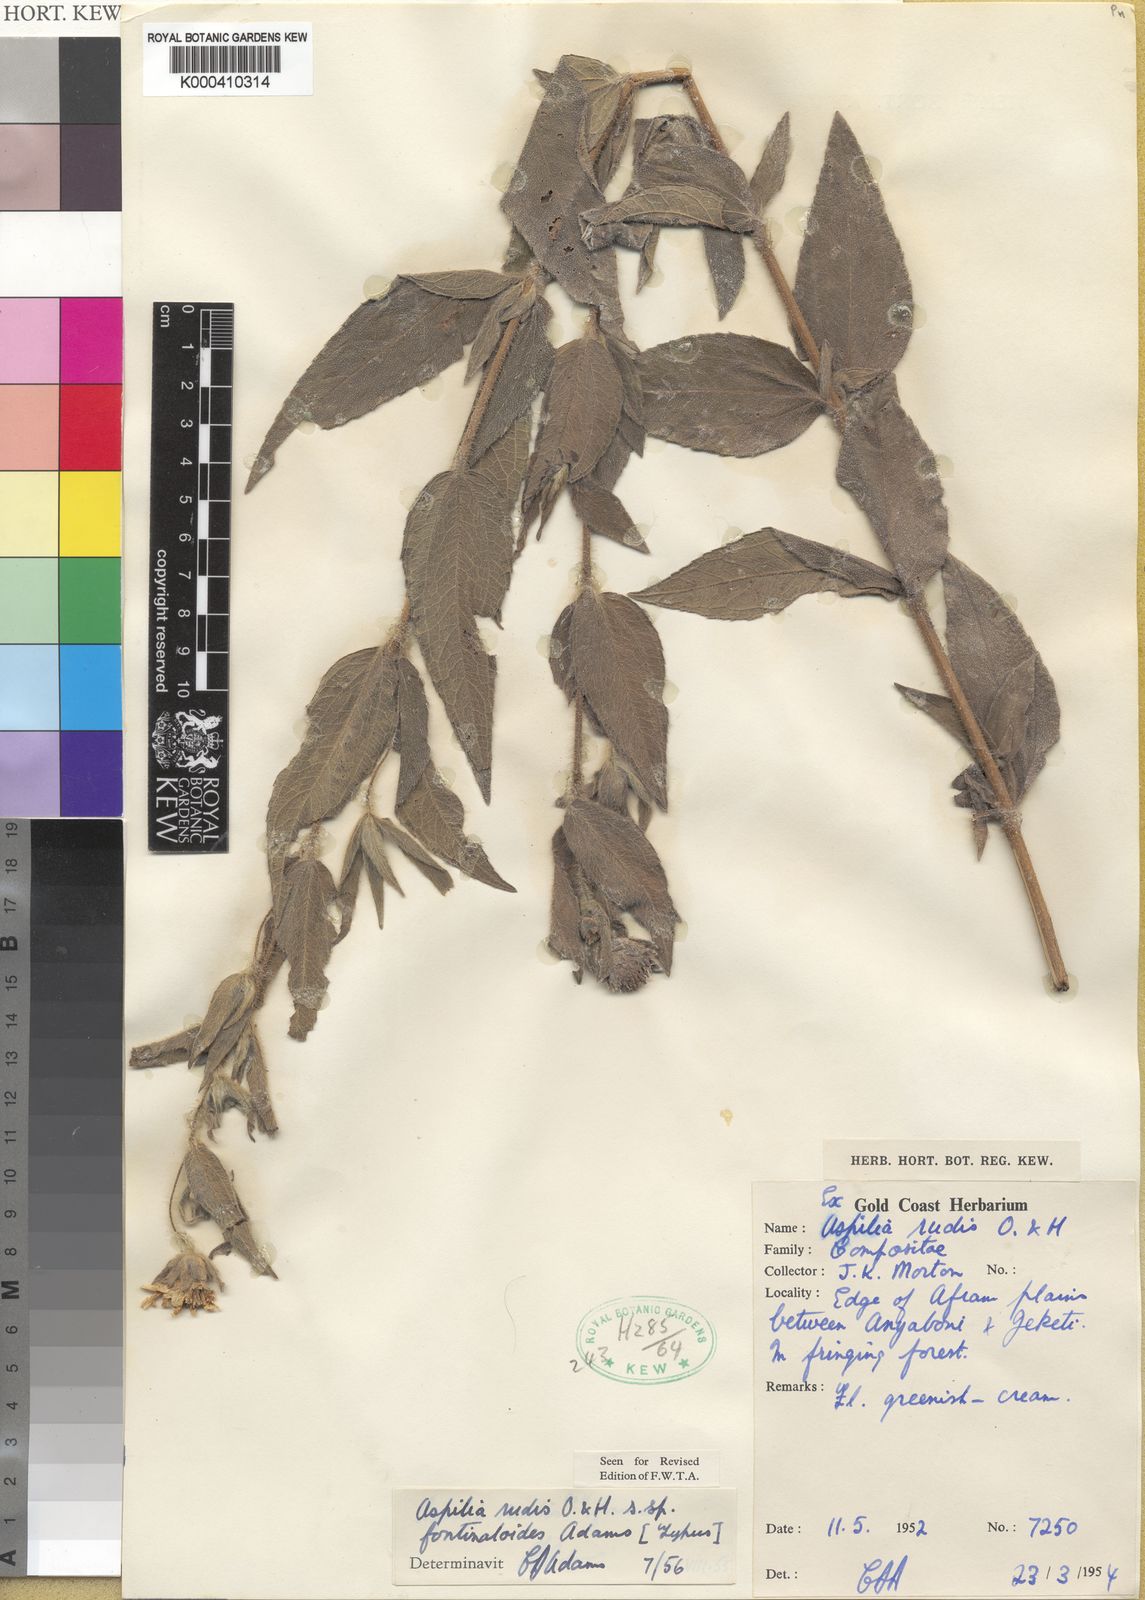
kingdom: Plantae
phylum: Tracheophyta
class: Magnoliopsida
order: Asterales
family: Asteraceae
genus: Aspilia
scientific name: Aspilia rudis
